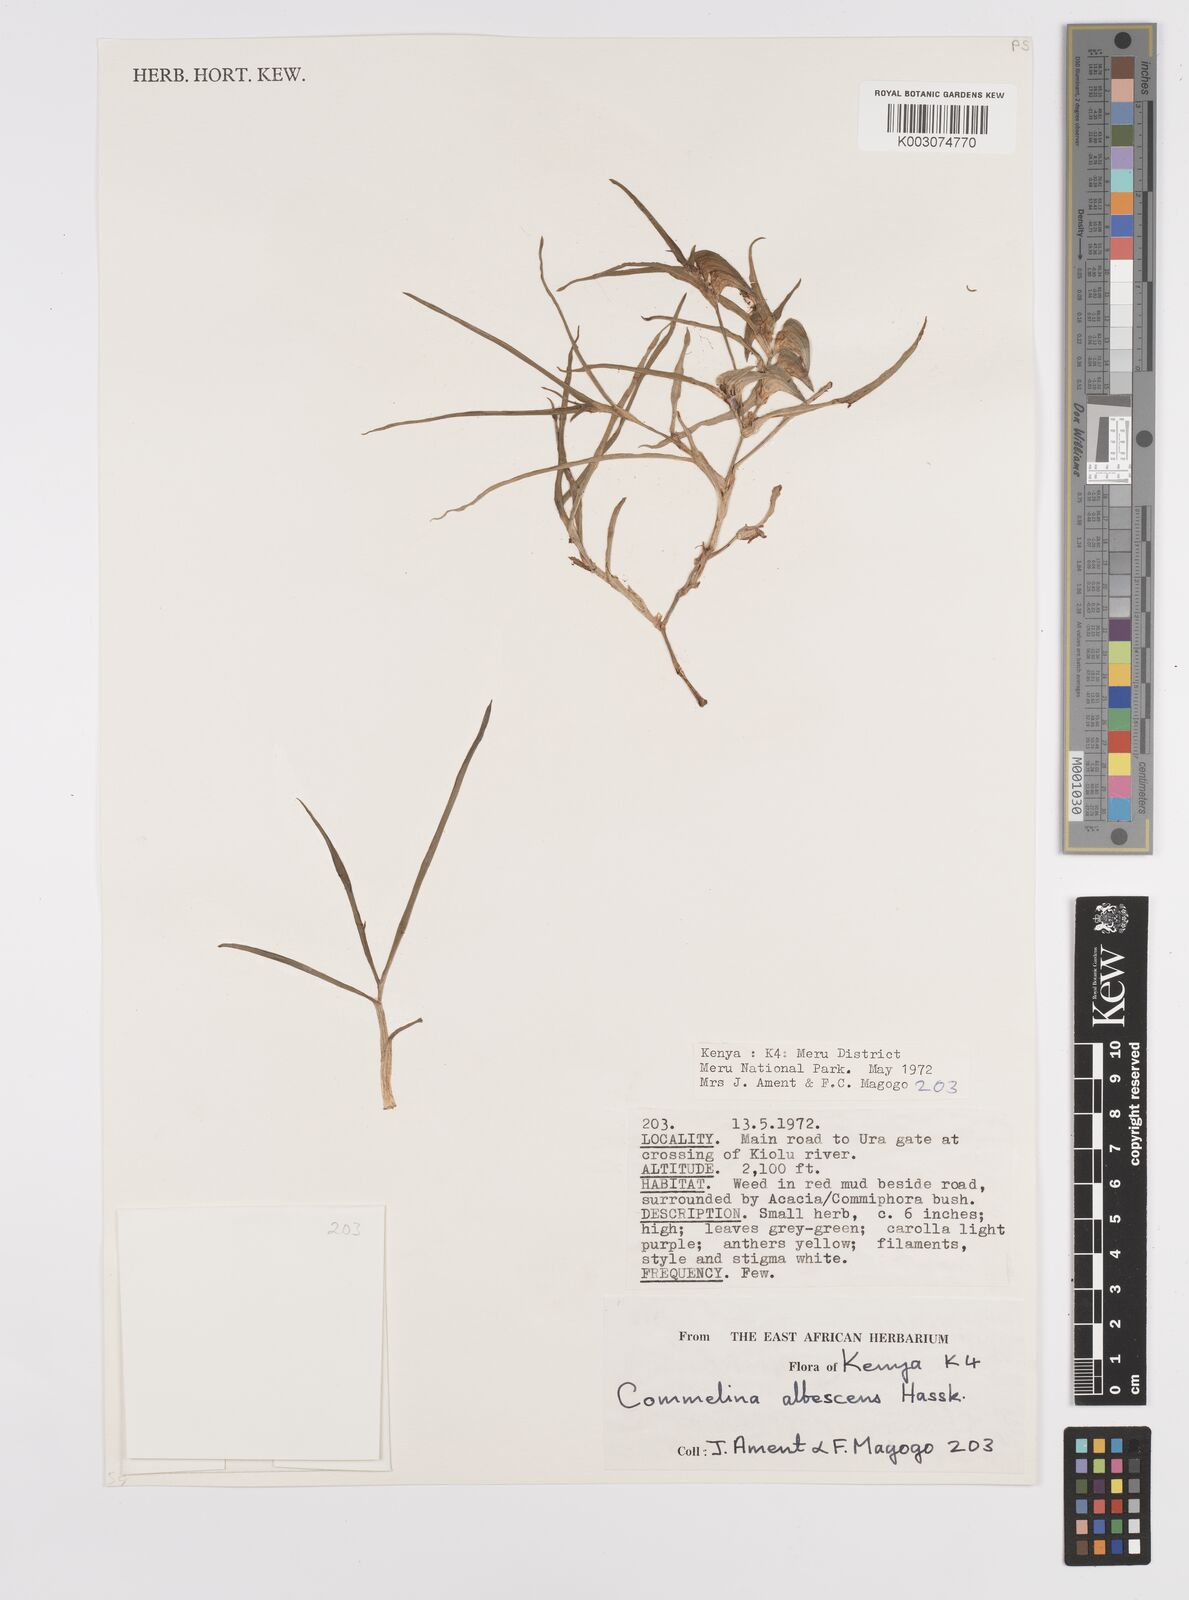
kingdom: Plantae
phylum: Tracheophyta
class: Liliopsida
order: Commelinales
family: Commelinaceae
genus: Commelina
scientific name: Commelina albescens
